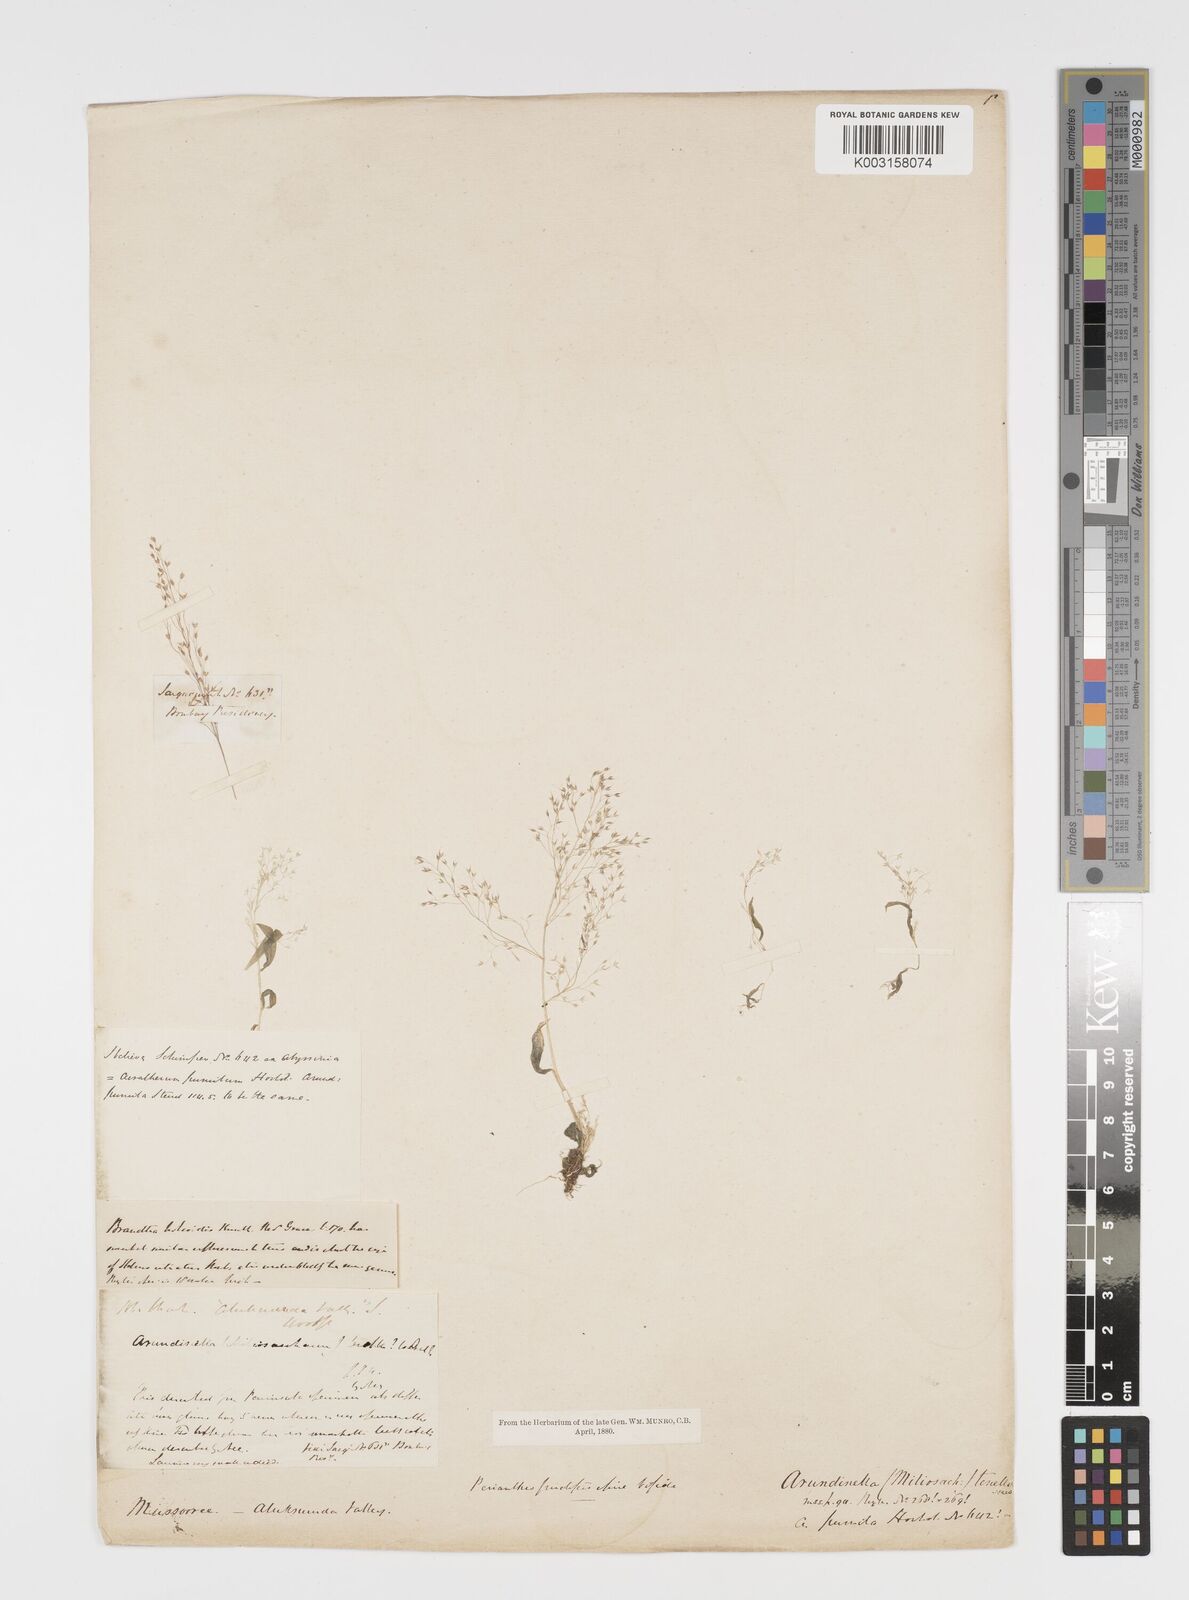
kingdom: Plantae
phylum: Tracheophyta
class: Liliopsida
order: Poales
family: Poaceae
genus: Arundinella
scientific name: Arundinella pumila
